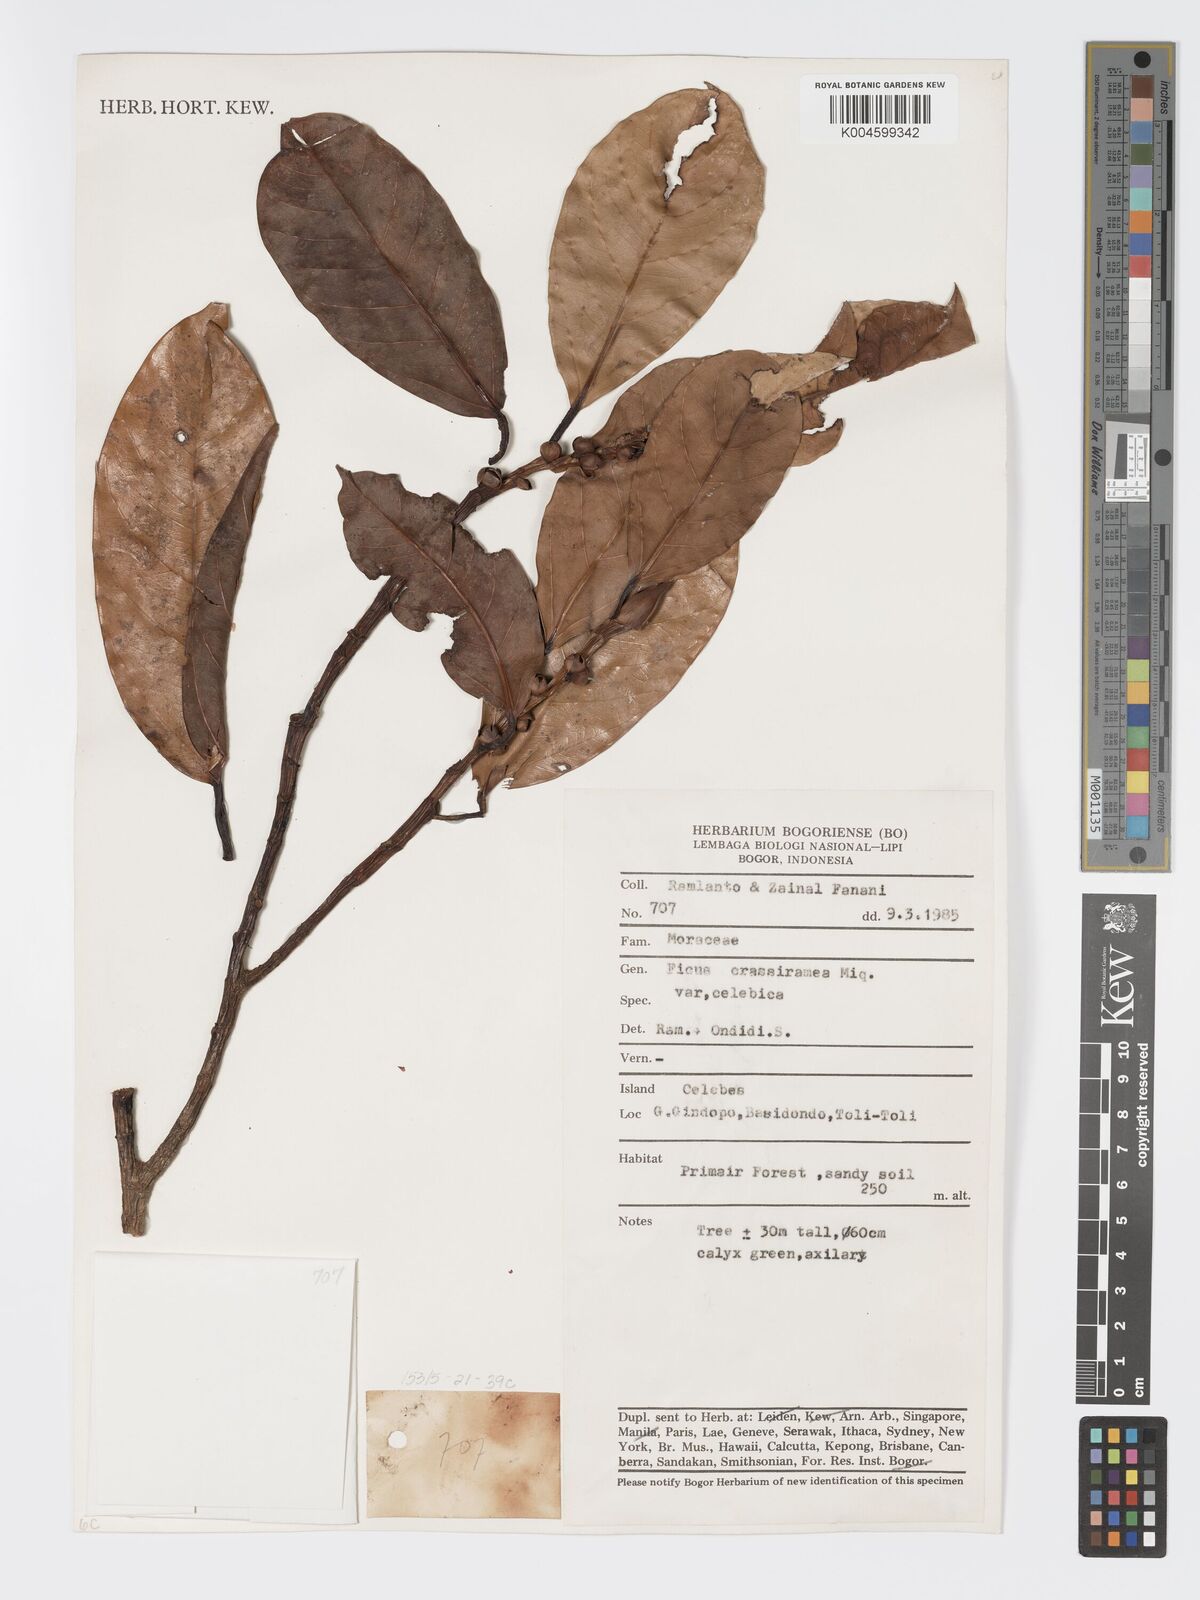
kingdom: Plantae
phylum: Tracheophyta
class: Magnoliopsida
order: Rosales
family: Moraceae
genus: Ficus
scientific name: Ficus crassiramea
